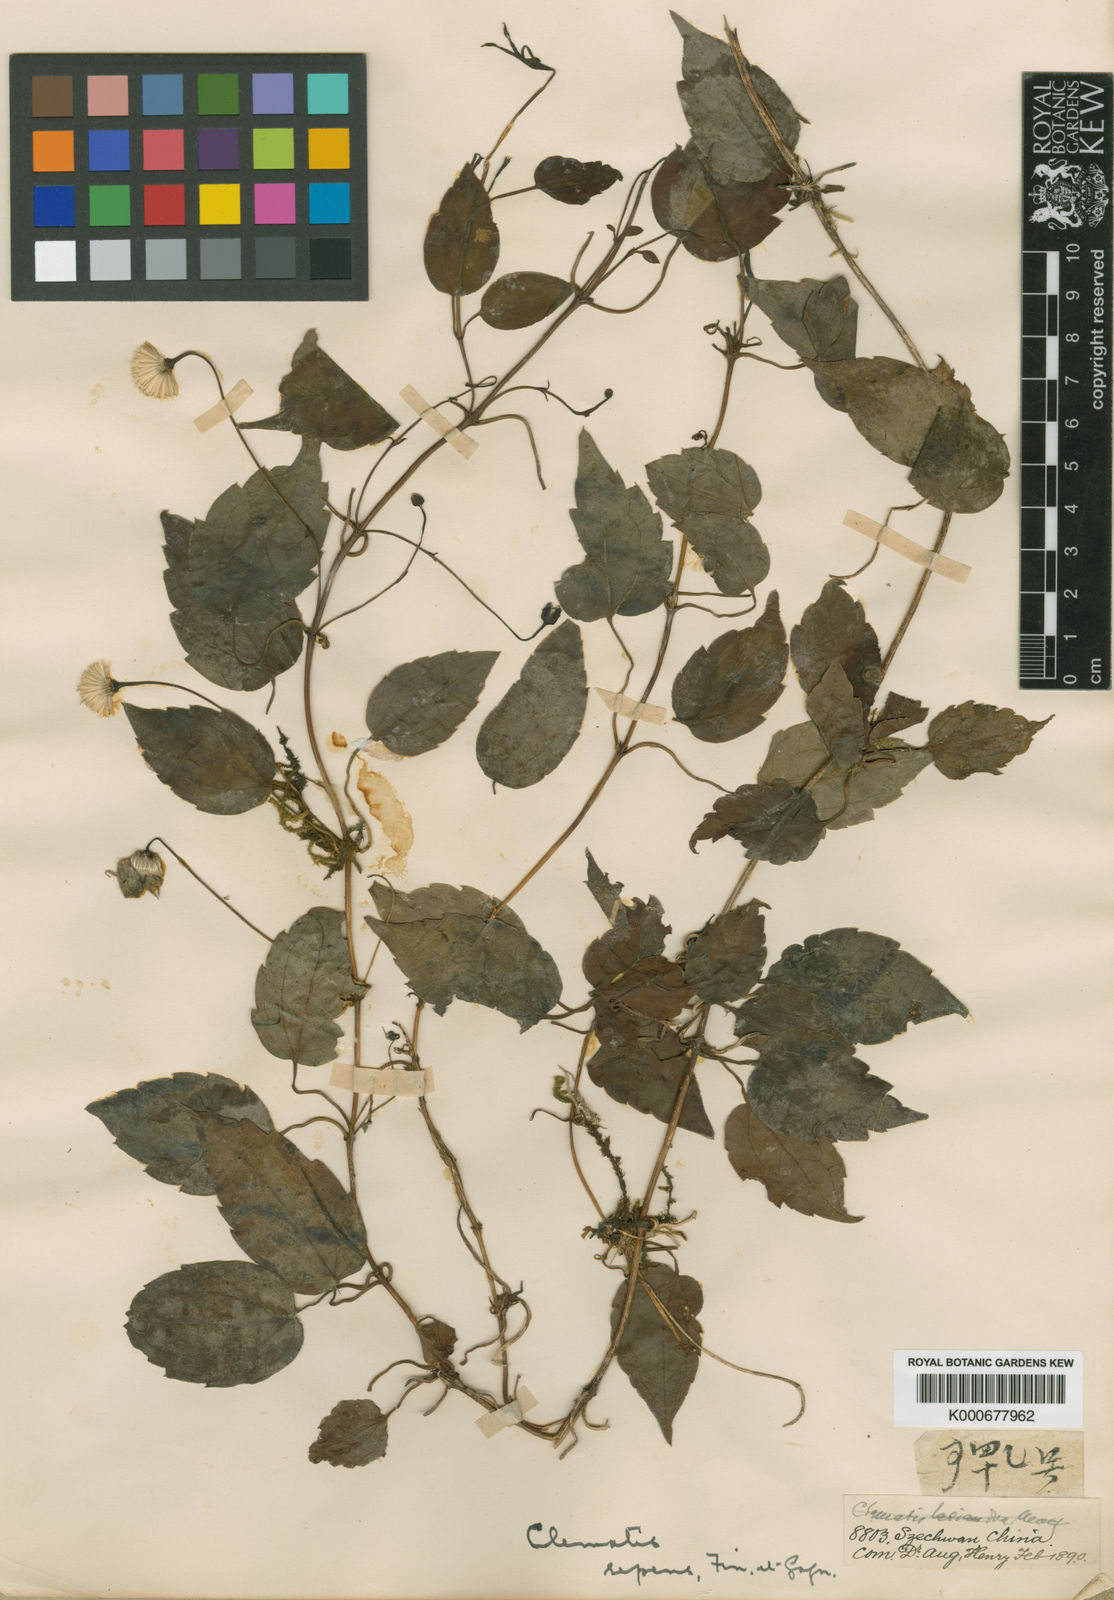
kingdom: Plantae
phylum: Tracheophyta
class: Magnoliopsida
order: Ranunculales
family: Ranunculaceae
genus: Clematis
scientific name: Clematis repens
